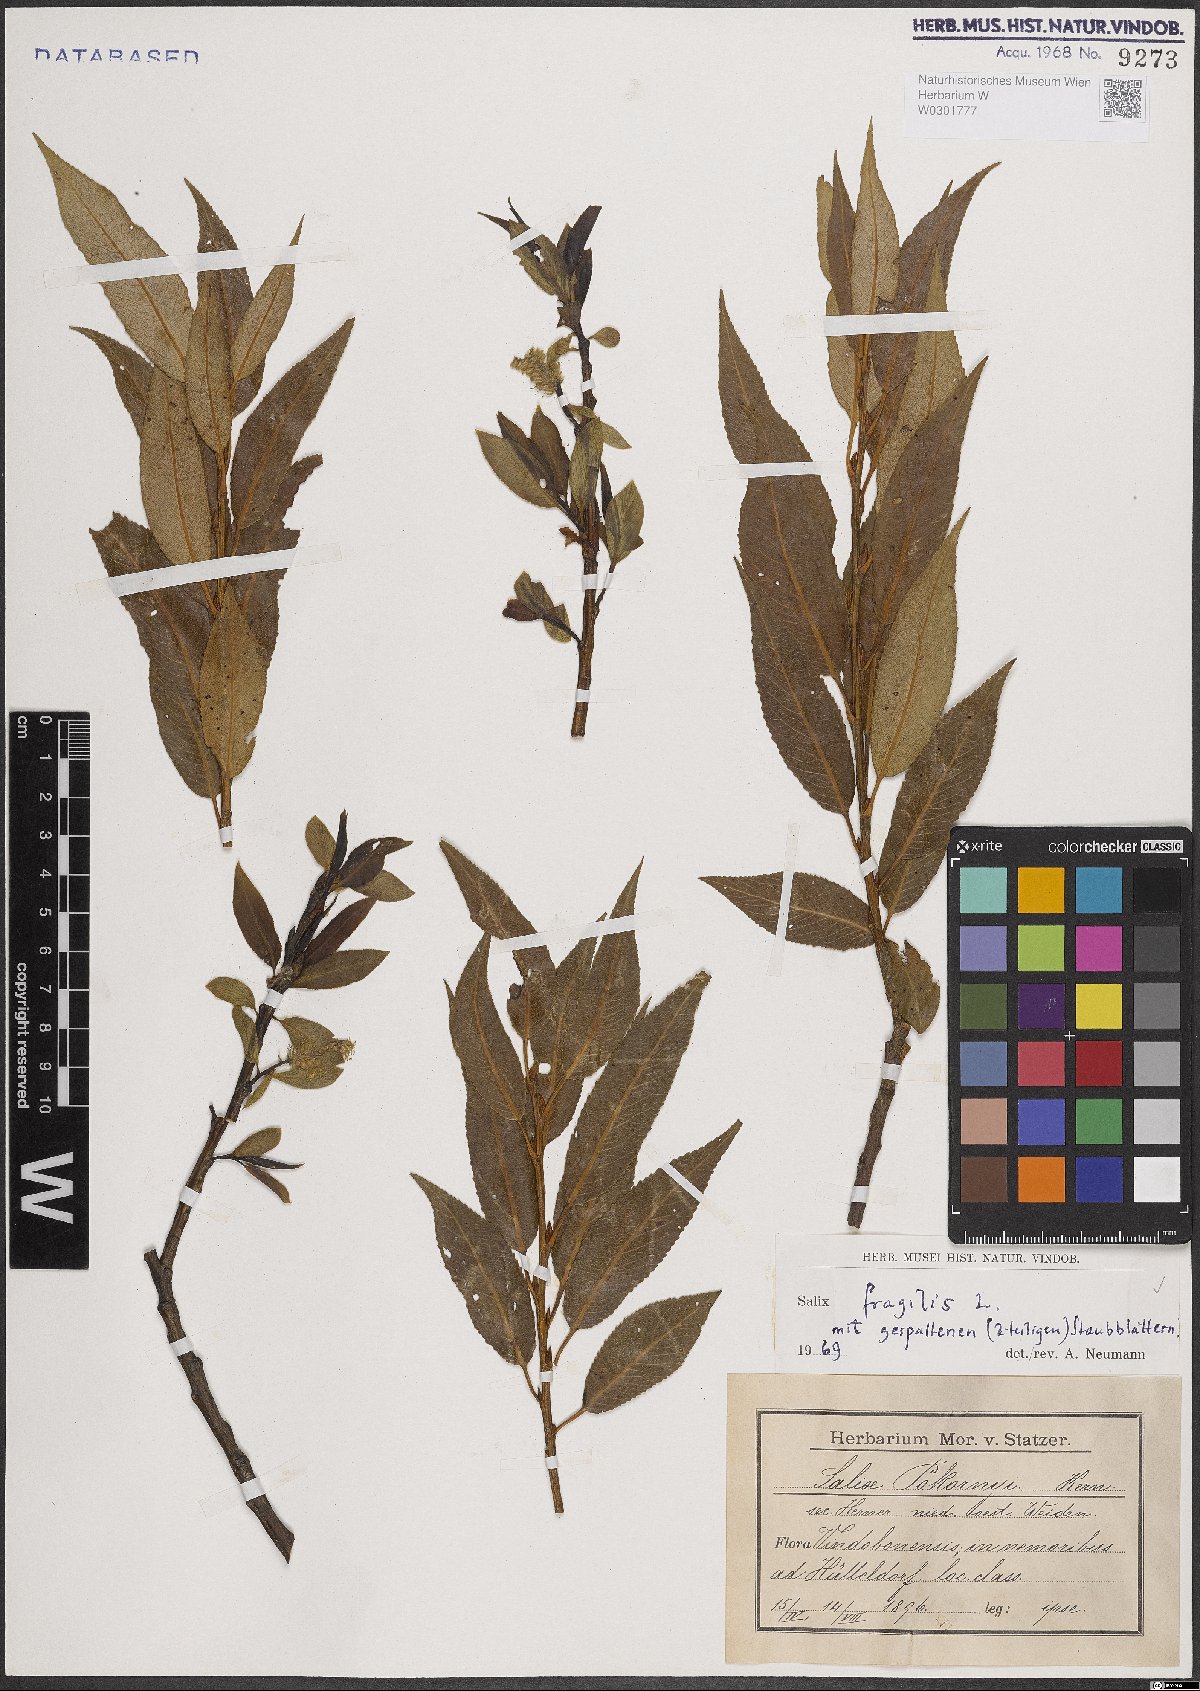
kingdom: Plantae
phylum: Tracheophyta
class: Magnoliopsida
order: Malpighiales
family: Salicaceae
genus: Salix
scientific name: Salix fragilis
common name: Crack willow
